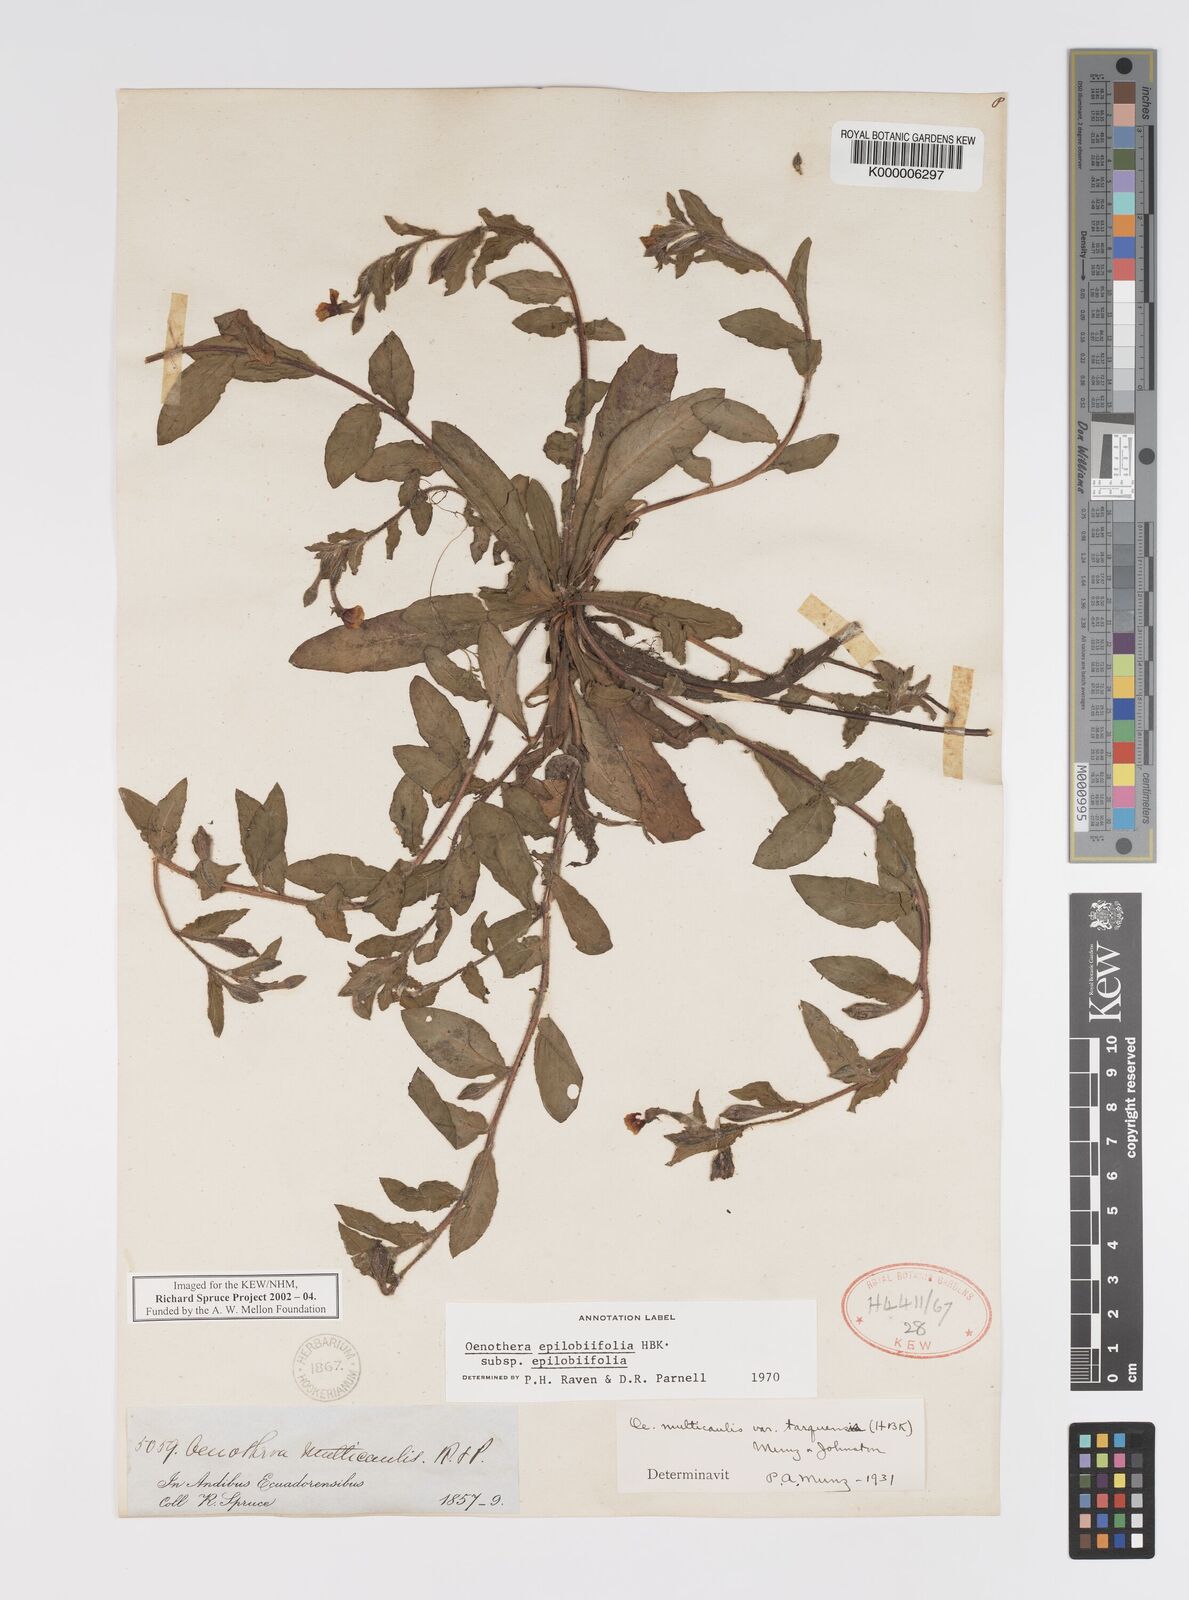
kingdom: Plantae
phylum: Tracheophyta
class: Magnoliopsida
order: Myrtales
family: Onagraceae
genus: Oenothera
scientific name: Oenothera
